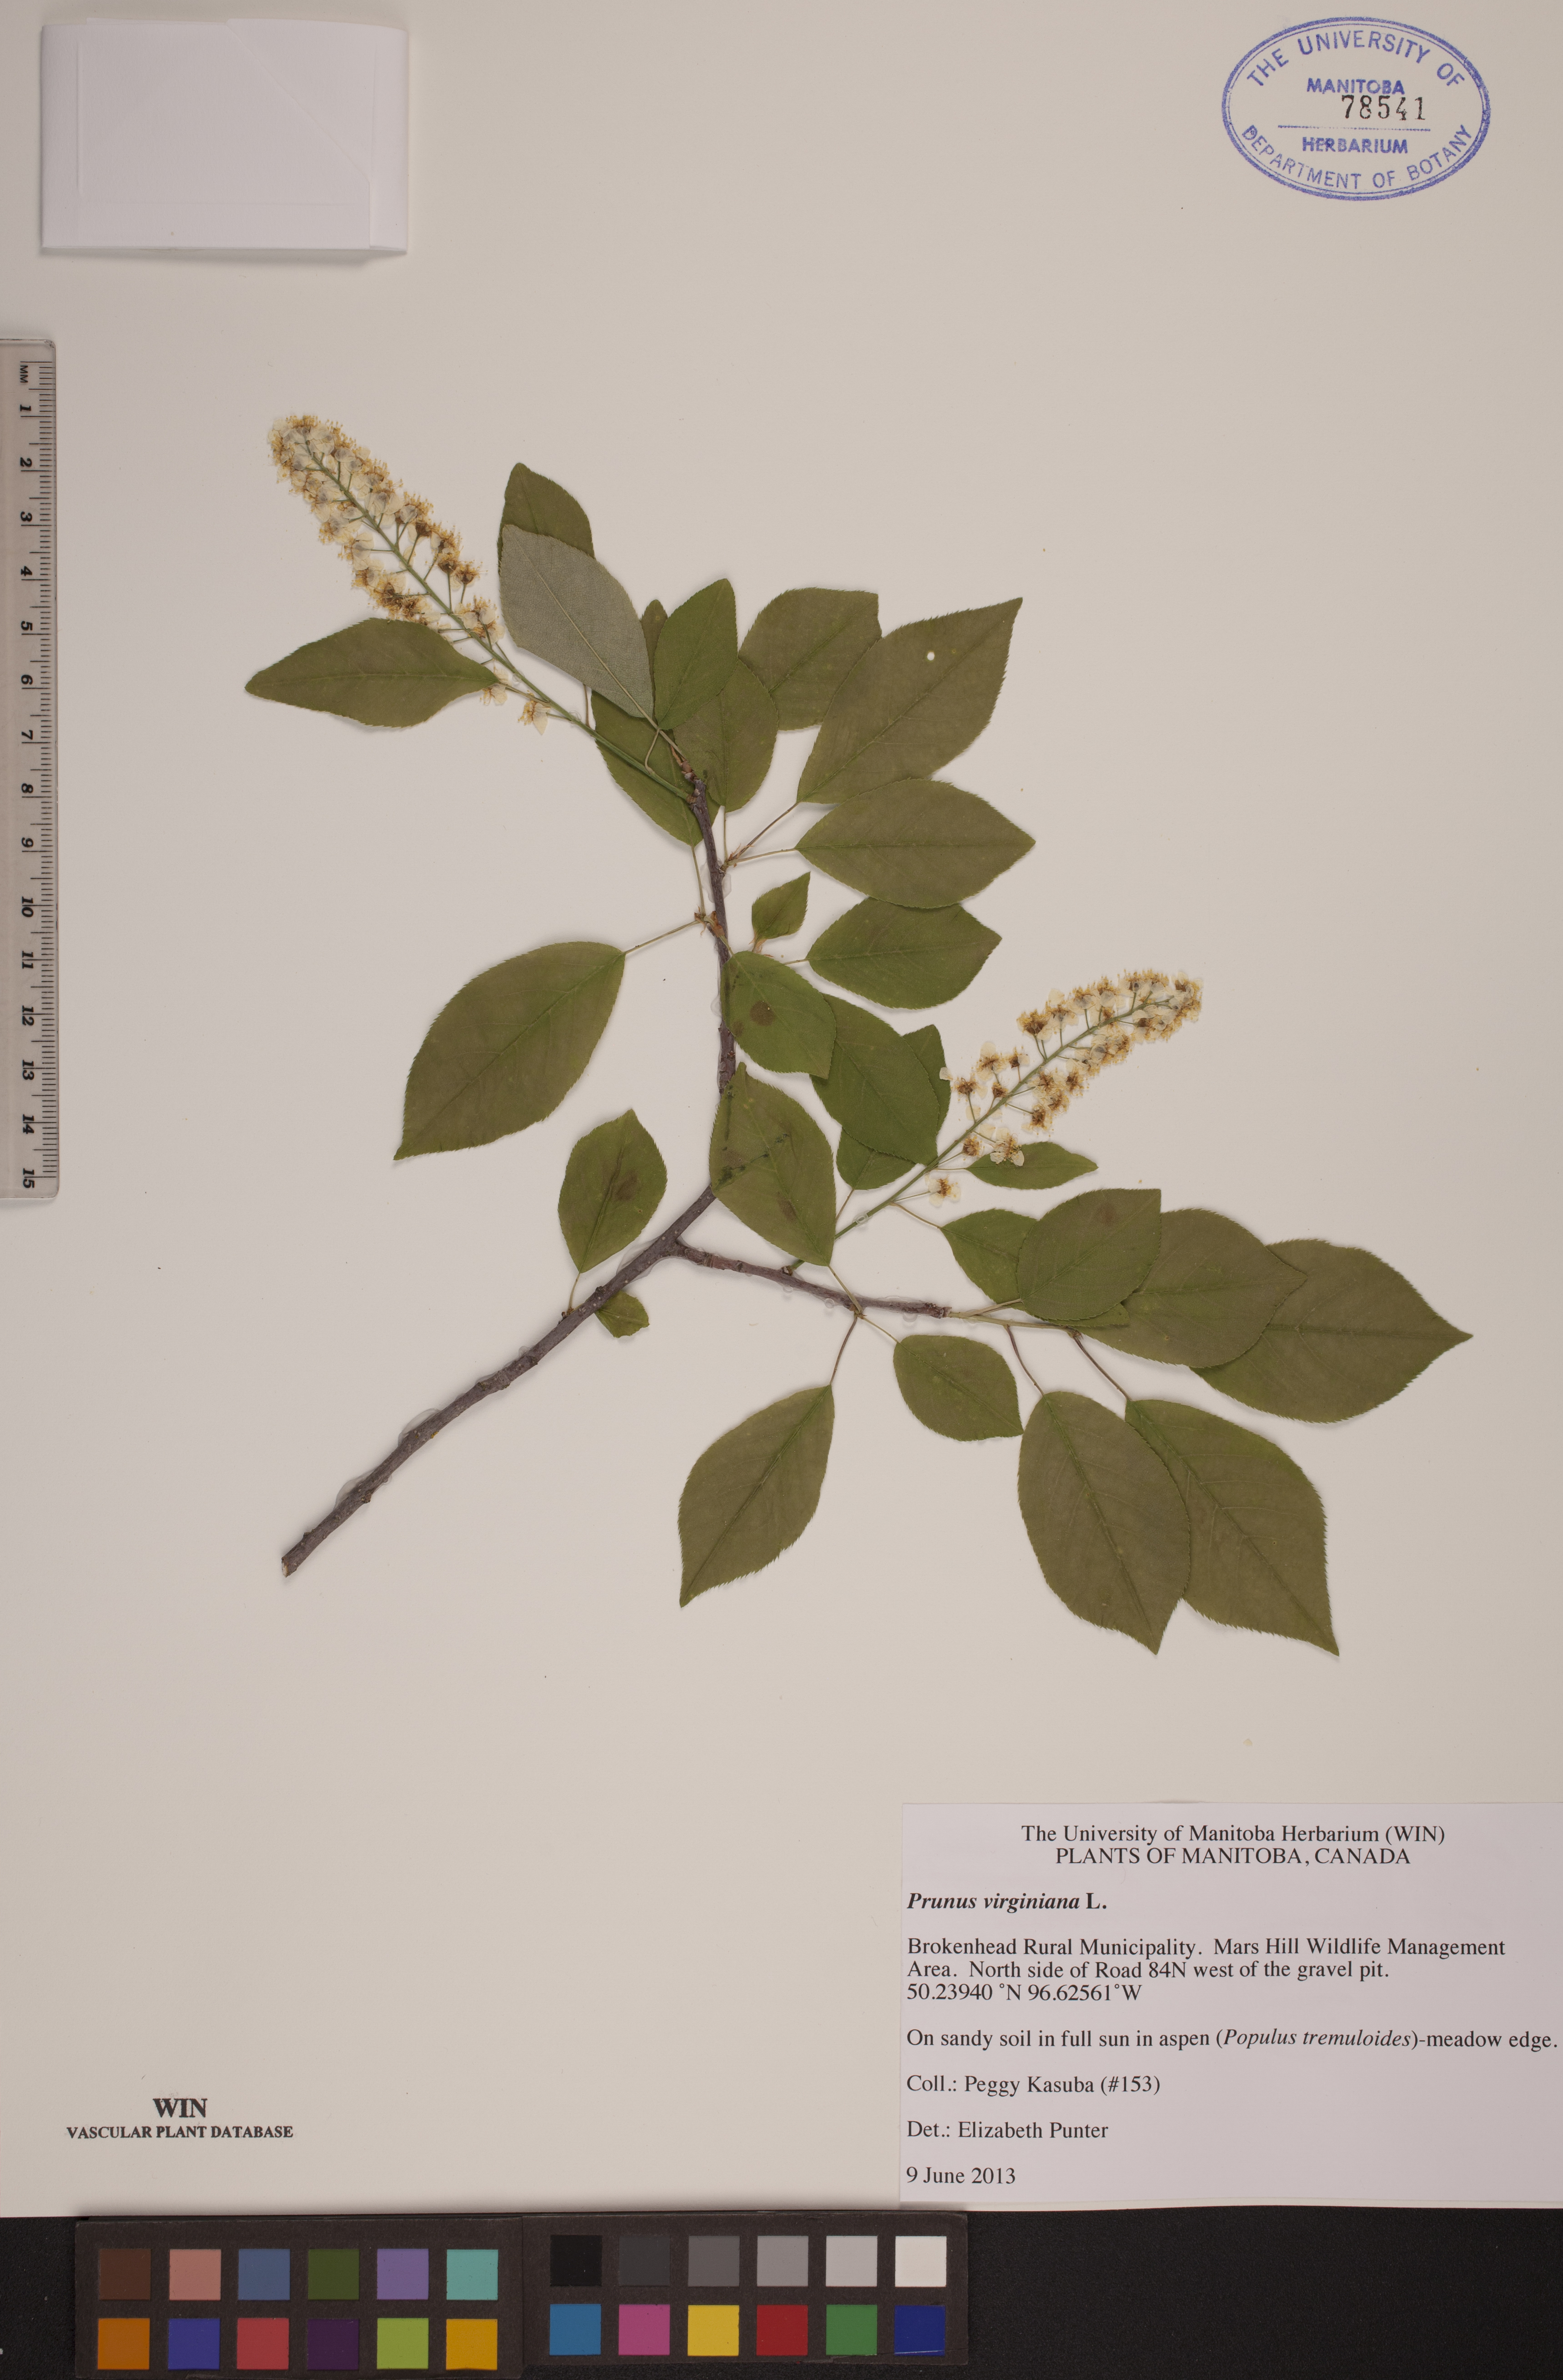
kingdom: Plantae
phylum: Tracheophyta
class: Magnoliopsida
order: Rosales
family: Rosaceae
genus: Prunus
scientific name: Prunus virginiana
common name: Chokecherry
